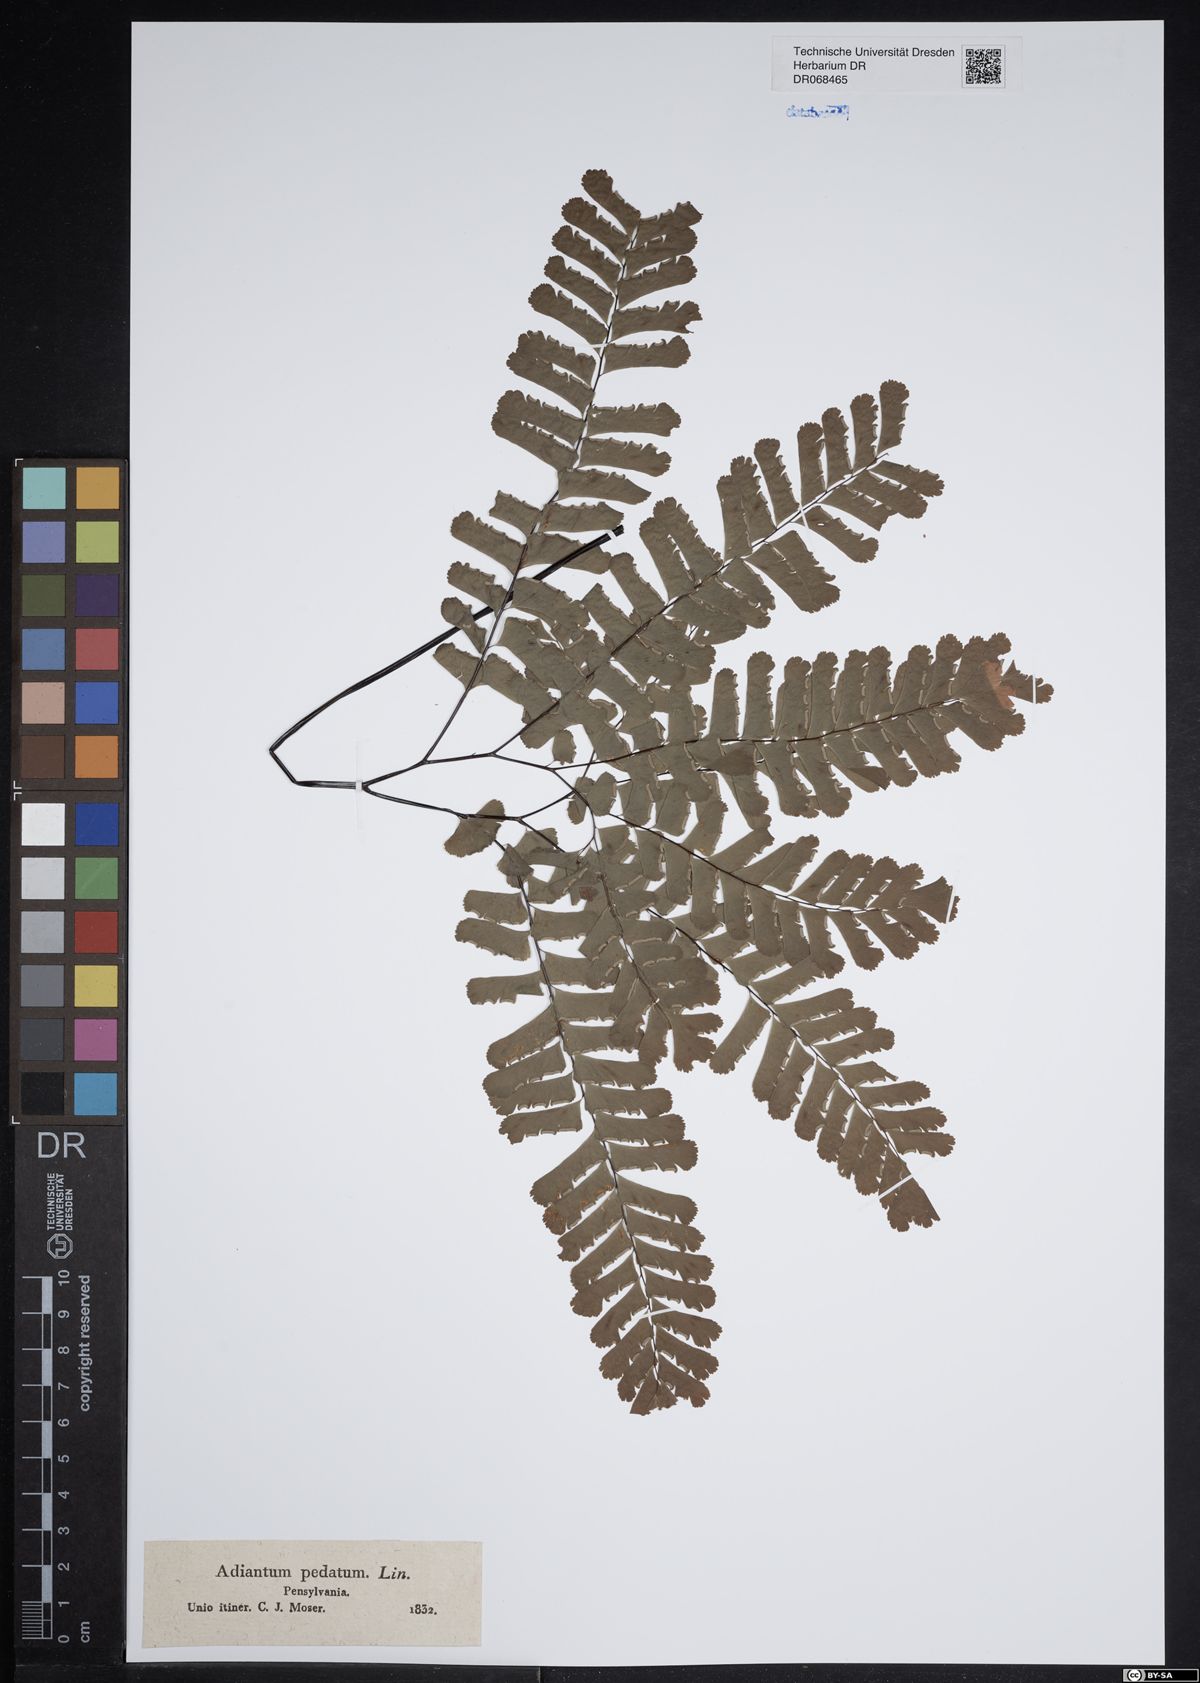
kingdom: Plantae
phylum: Tracheophyta
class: Polypodiopsida
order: Polypodiales
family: Pteridaceae
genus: Adiantum
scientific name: Adiantum pedatum
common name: Five-finger fern
